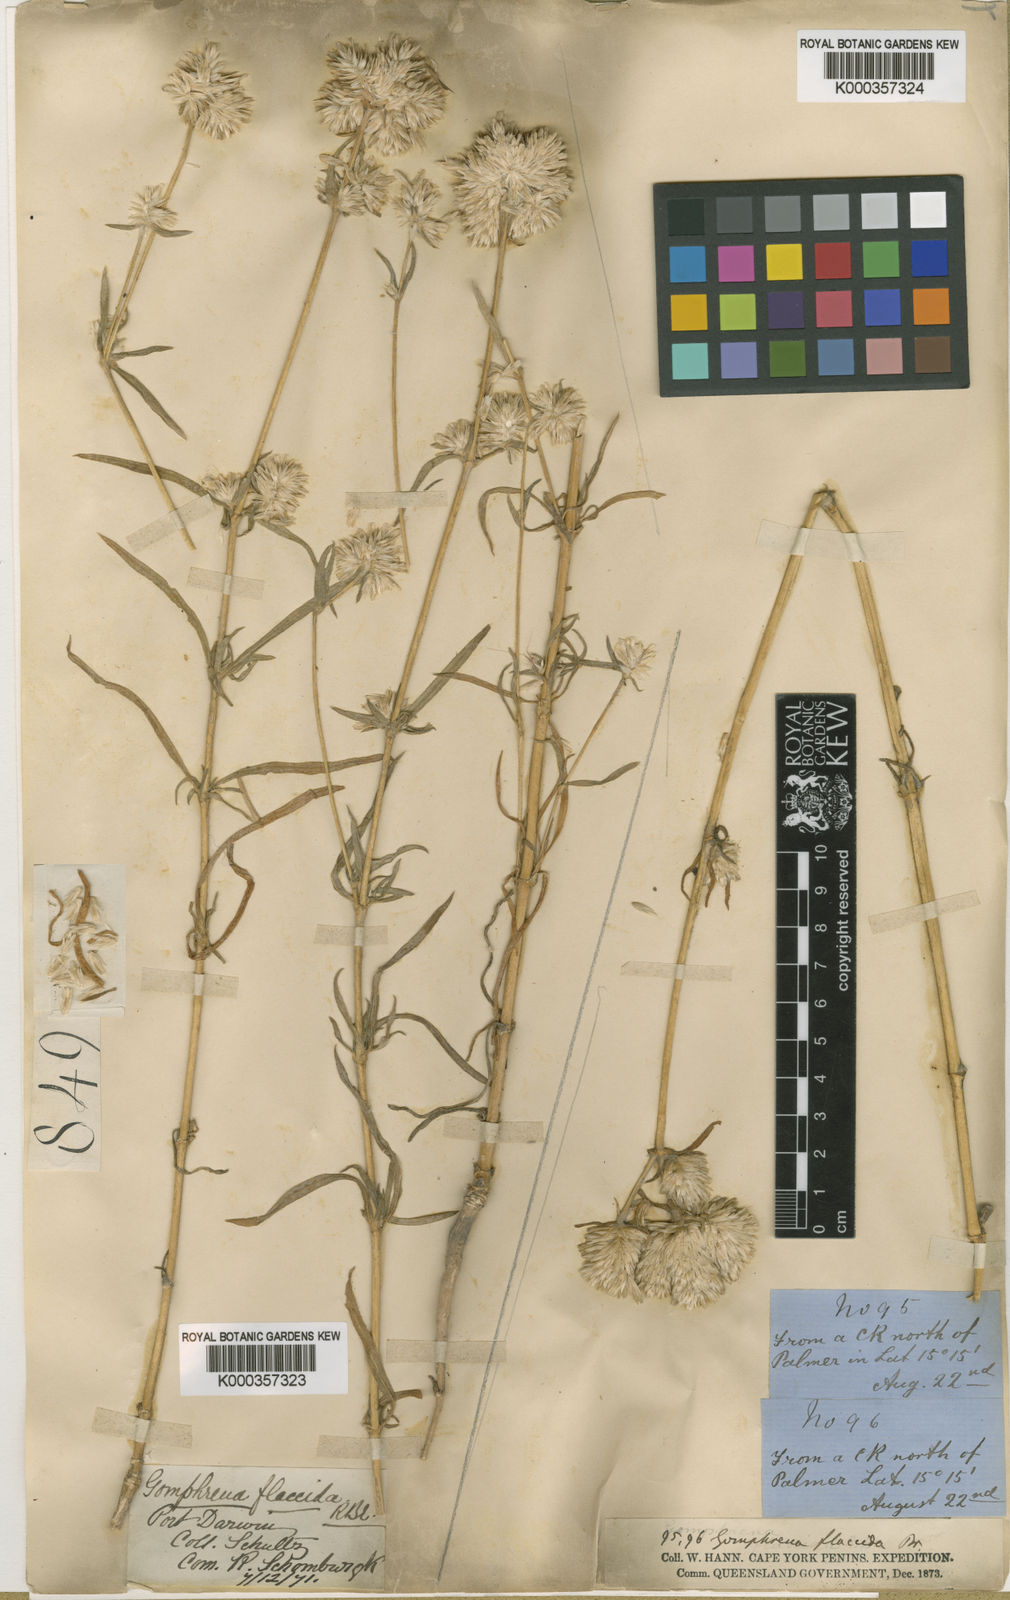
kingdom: Plantae
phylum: Tracheophyta
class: Magnoliopsida
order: Caryophyllales
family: Amaranthaceae
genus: Gomphrena
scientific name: Gomphrena flaccida
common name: Gomphrena-weed
